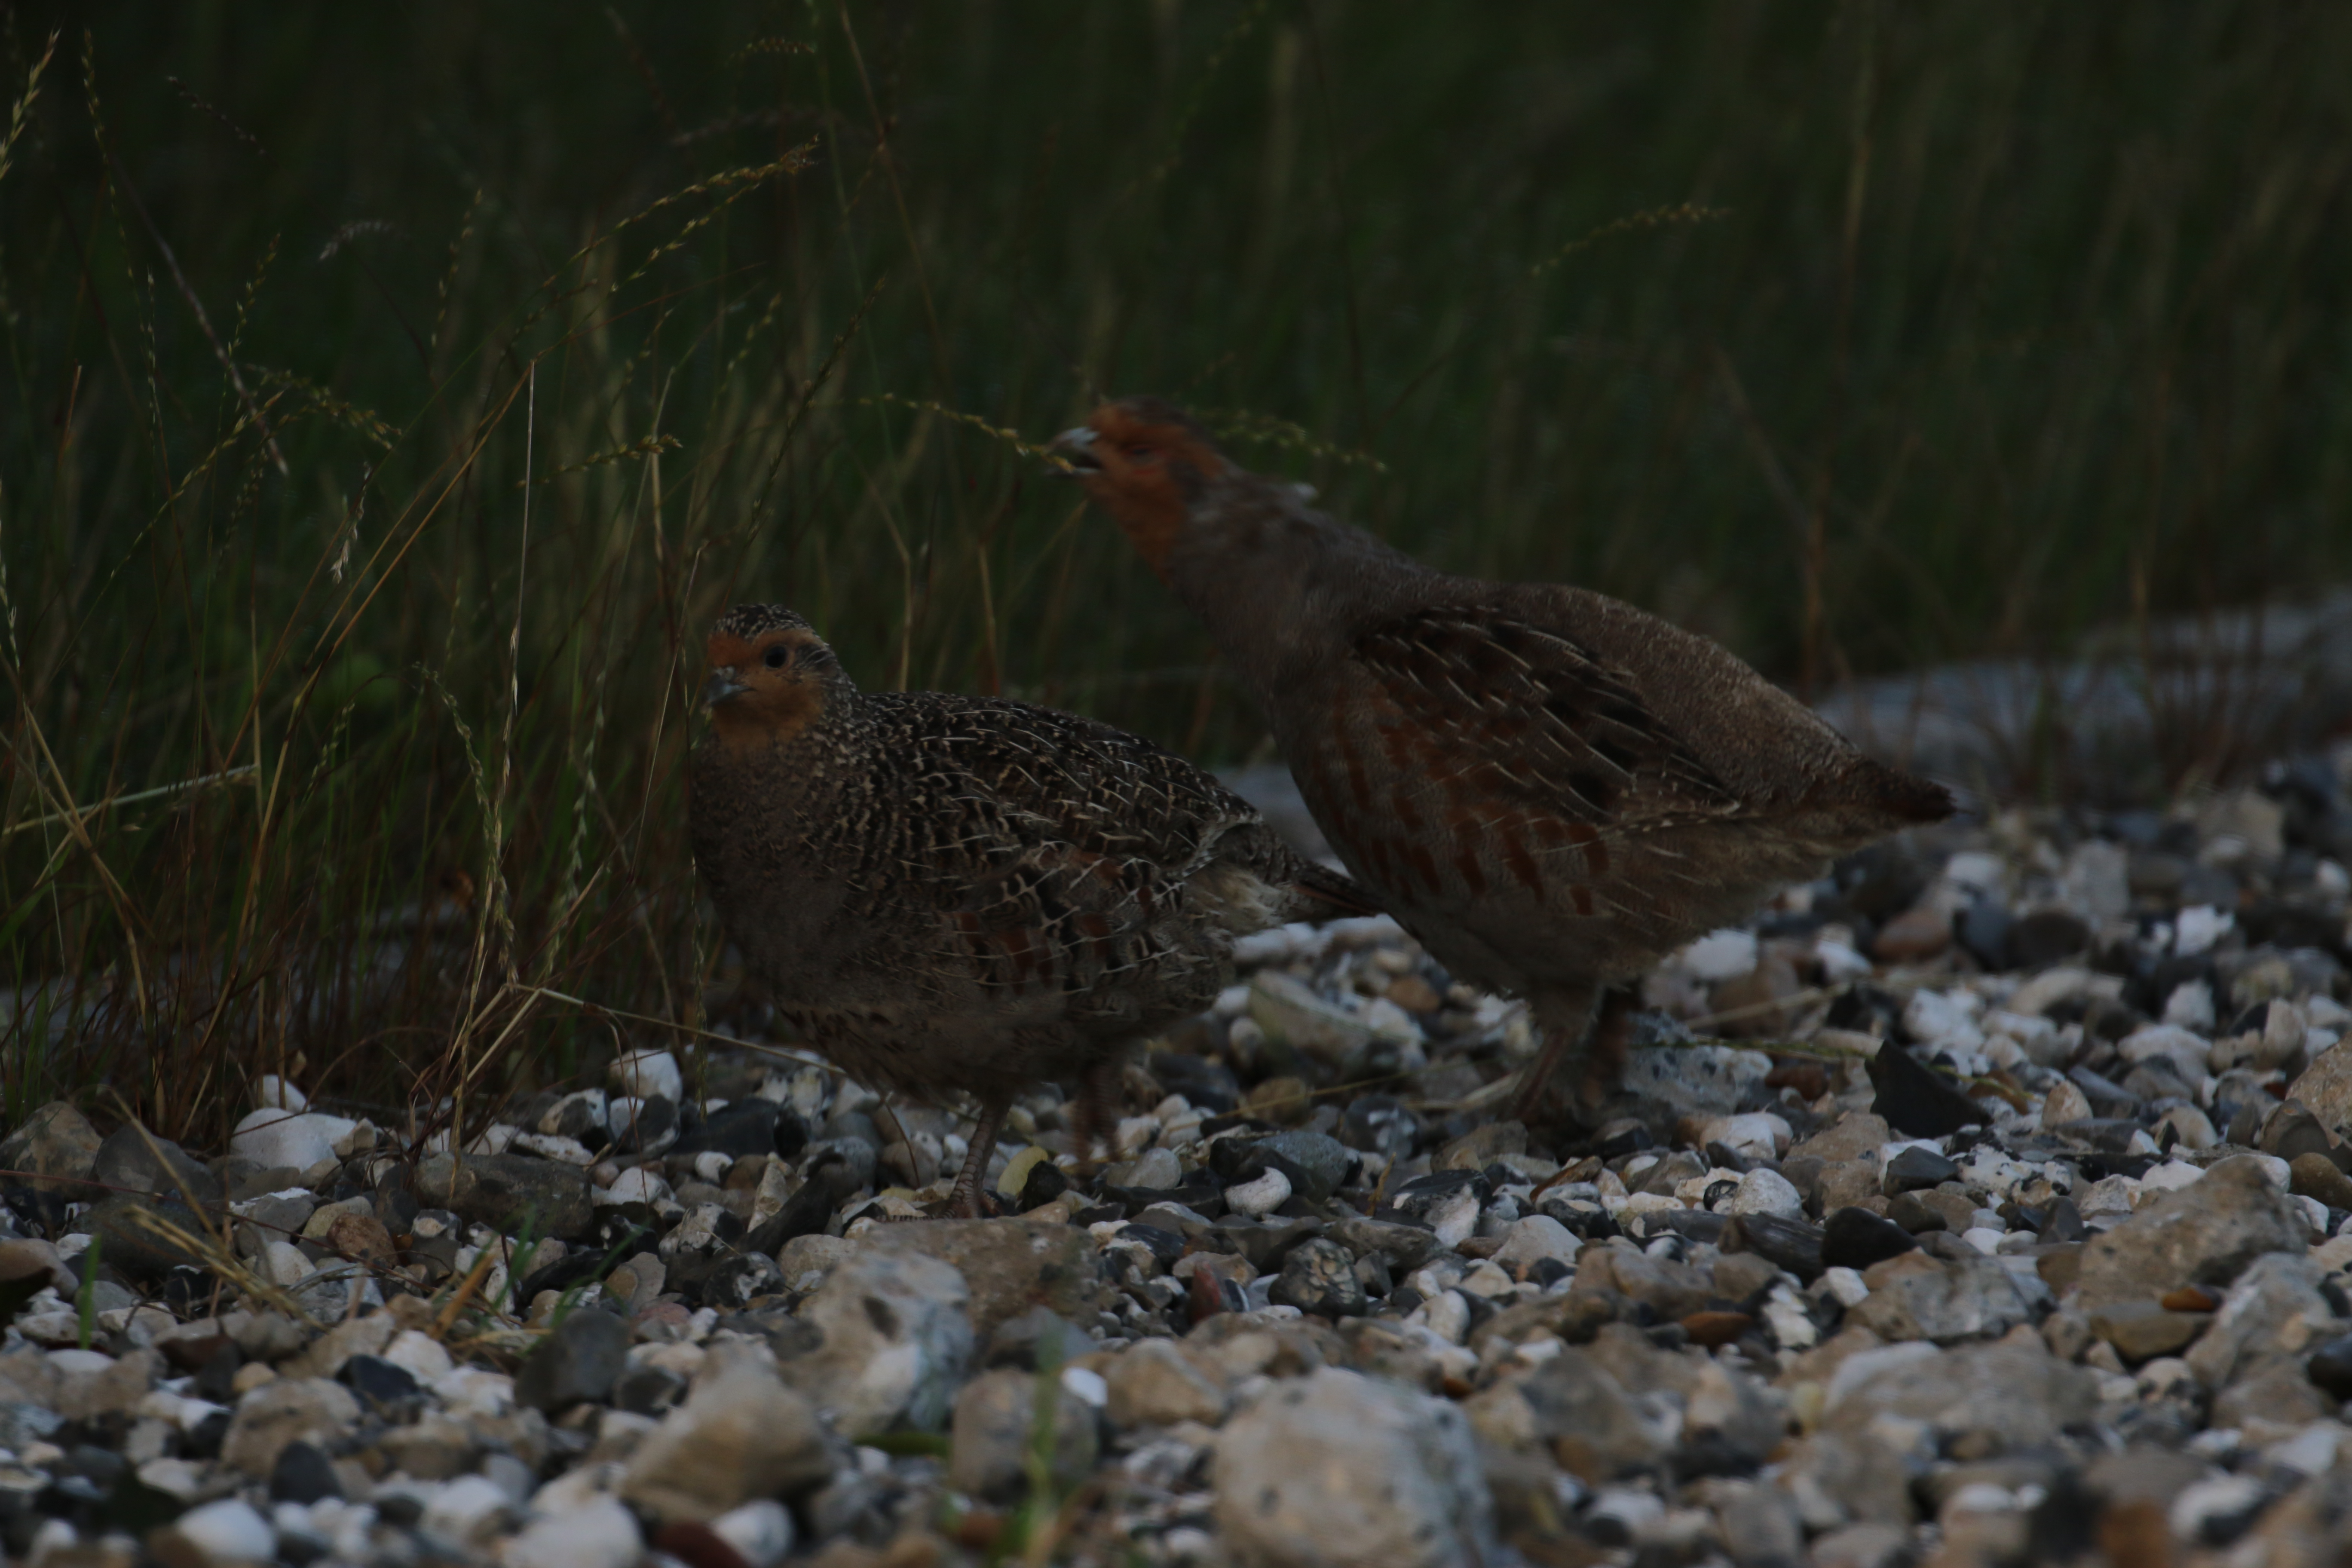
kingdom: Animalia
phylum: Chordata
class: Aves
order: Galliformes
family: Phasianidae
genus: Perdix
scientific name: Perdix perdix
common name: Agerhøne
